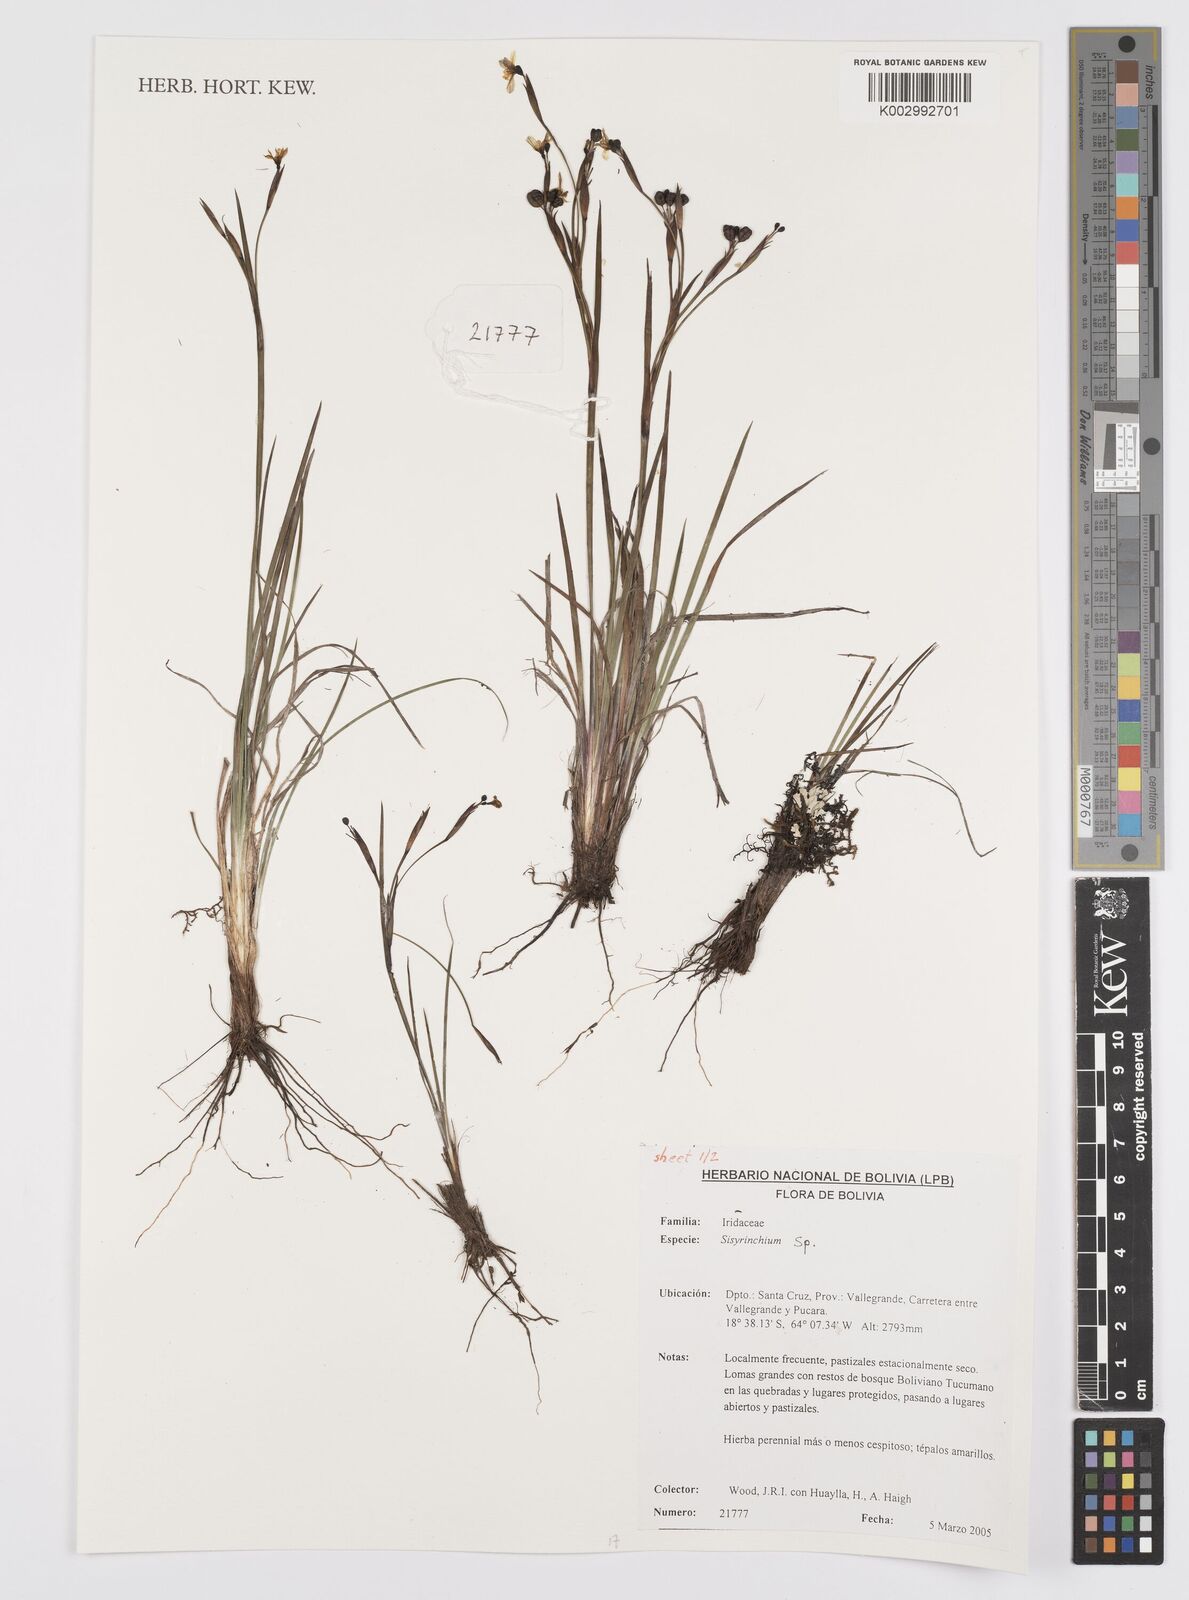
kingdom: Plantae
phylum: Tracheophyta
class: Liliopsida
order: Asparagales
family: Iridaceae
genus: Sisyrinchium
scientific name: Sisyrinchium
